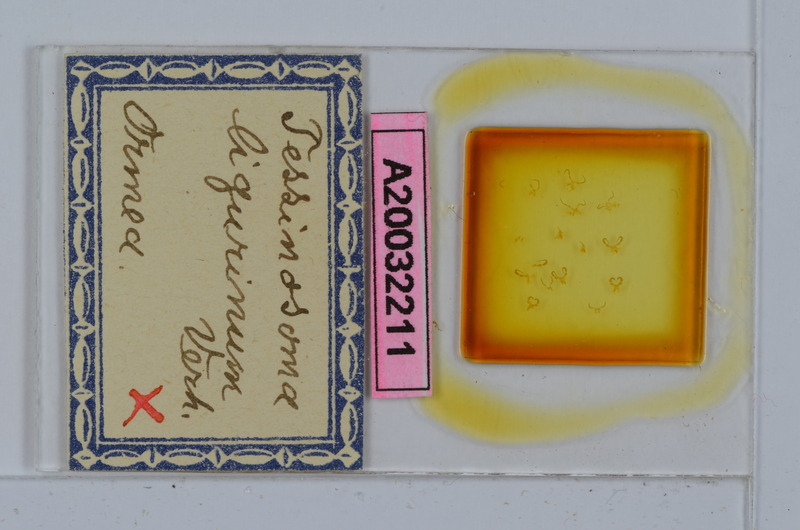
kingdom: Animalia
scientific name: Animalia
